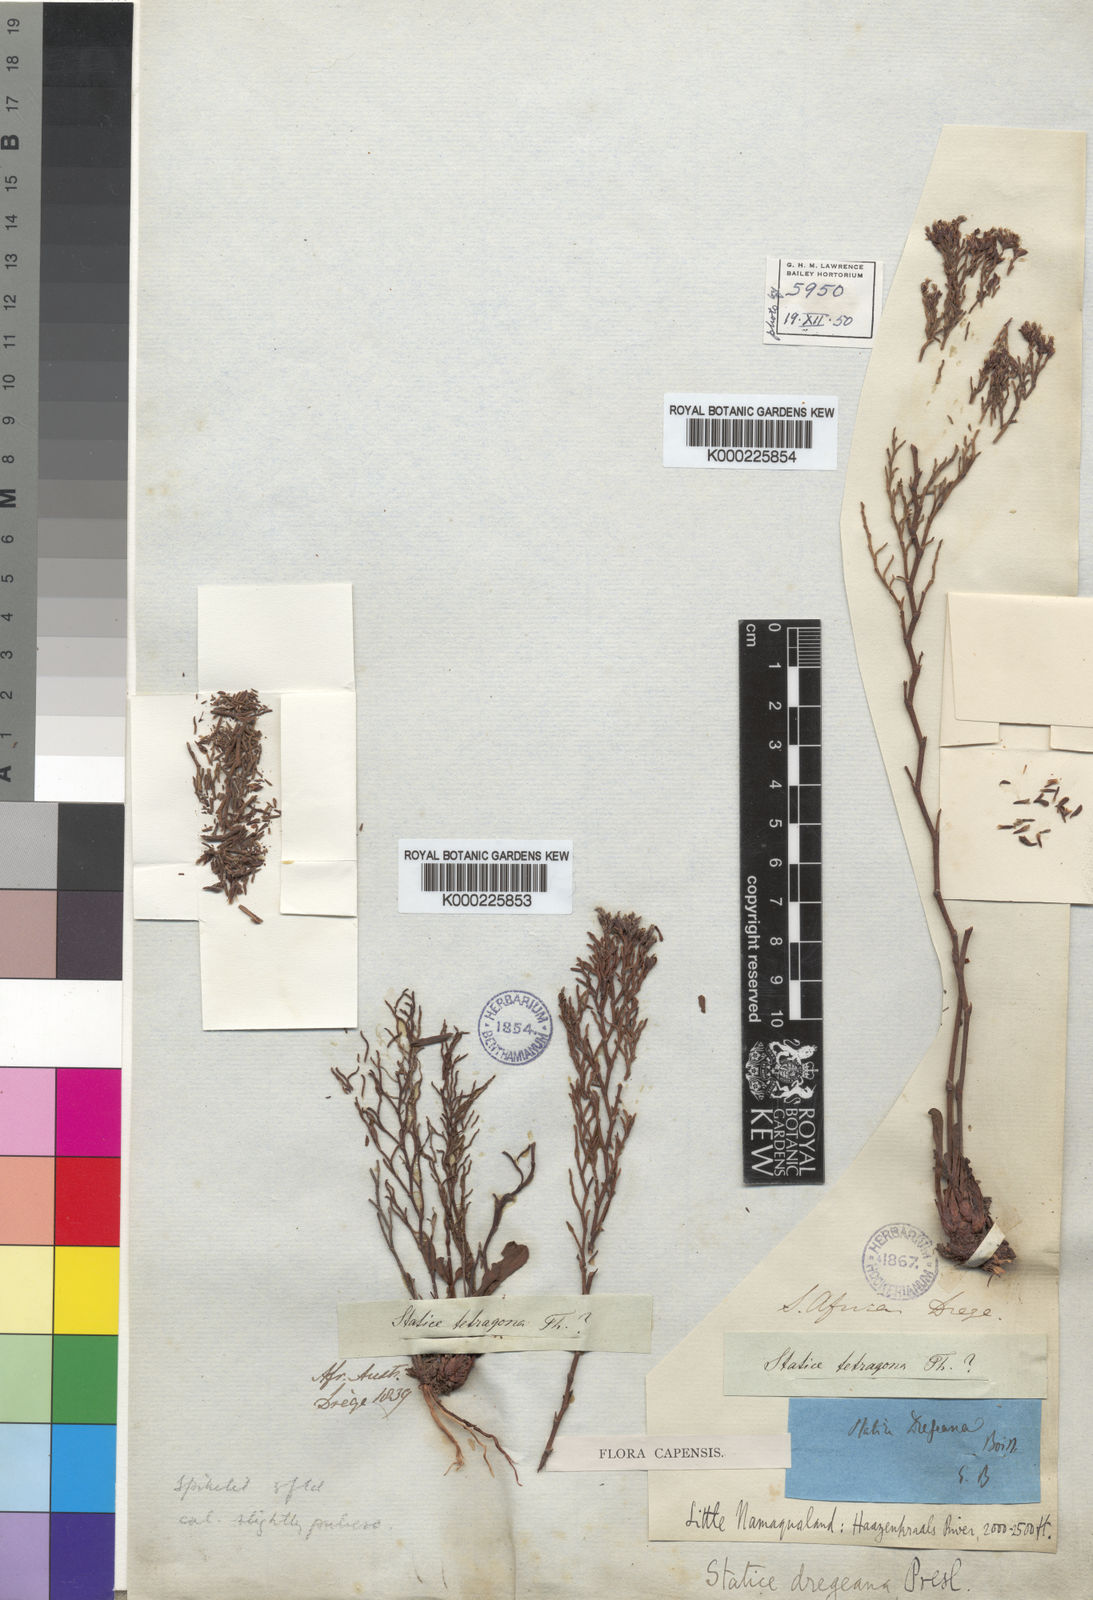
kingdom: Plantae
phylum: Tracheophyta
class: Magnoliopsida
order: Caryophyllales
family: Plumbaginaceae
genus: Limonium
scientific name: Limonium dregeanum
